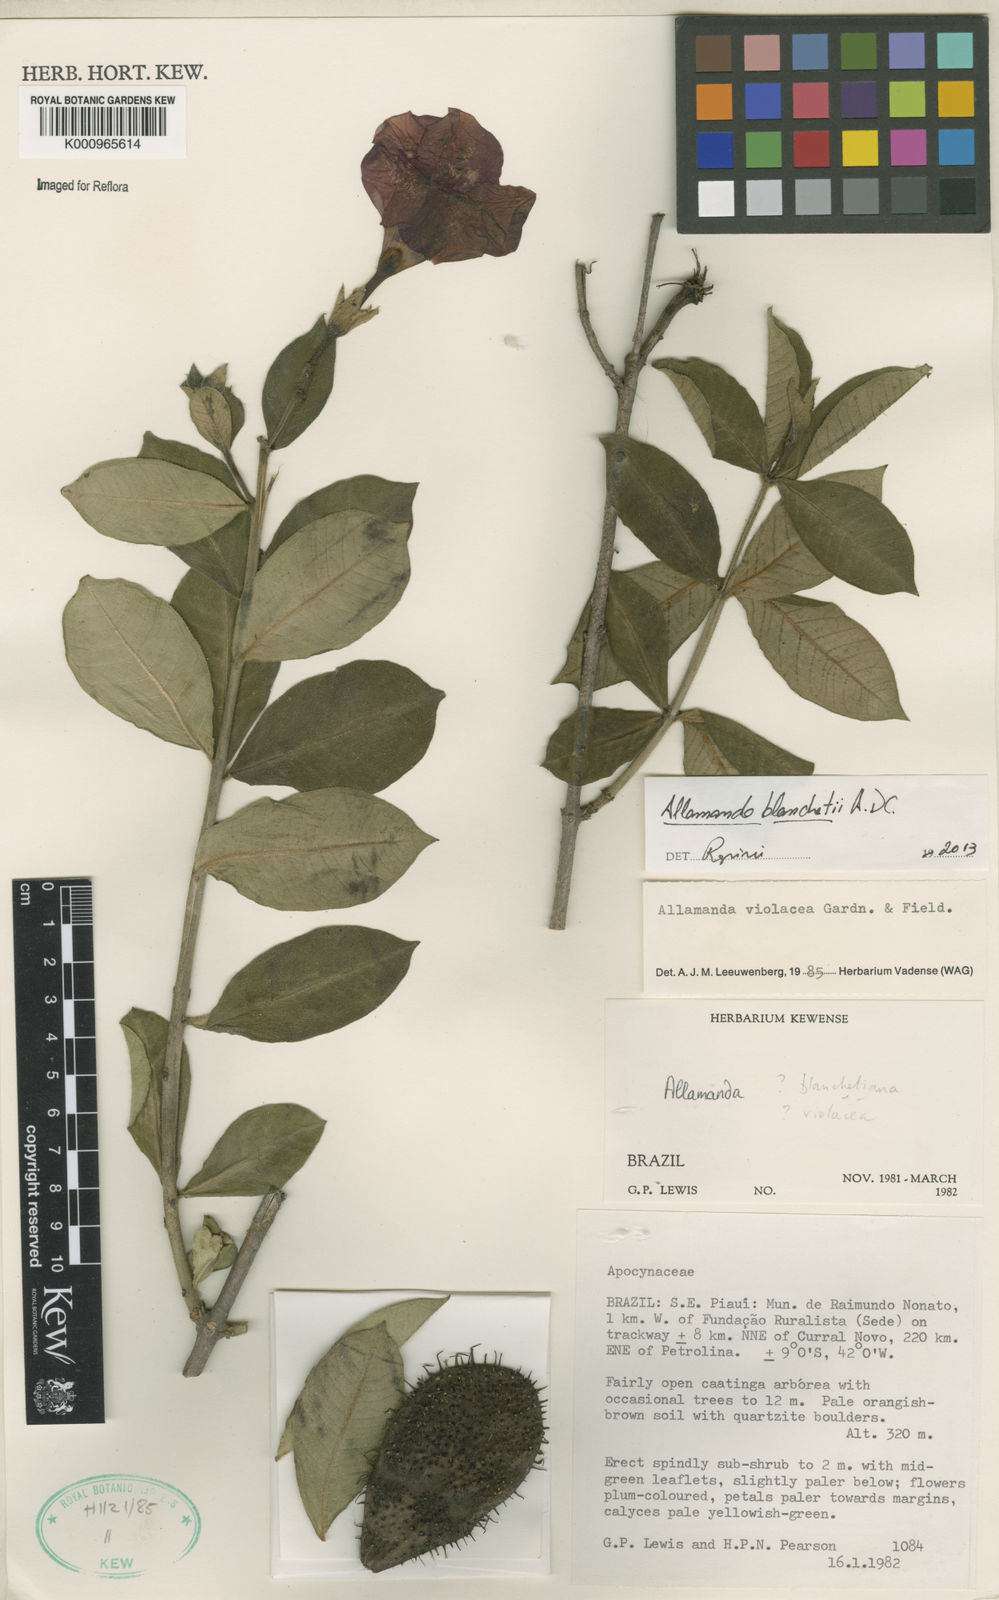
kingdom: Plantae
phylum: Tracheophyta
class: Magnoliopsida
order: Gentianales
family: Apocynaceae
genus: Allamanda
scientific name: Allamanda blanchetii
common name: Purple allamanda
